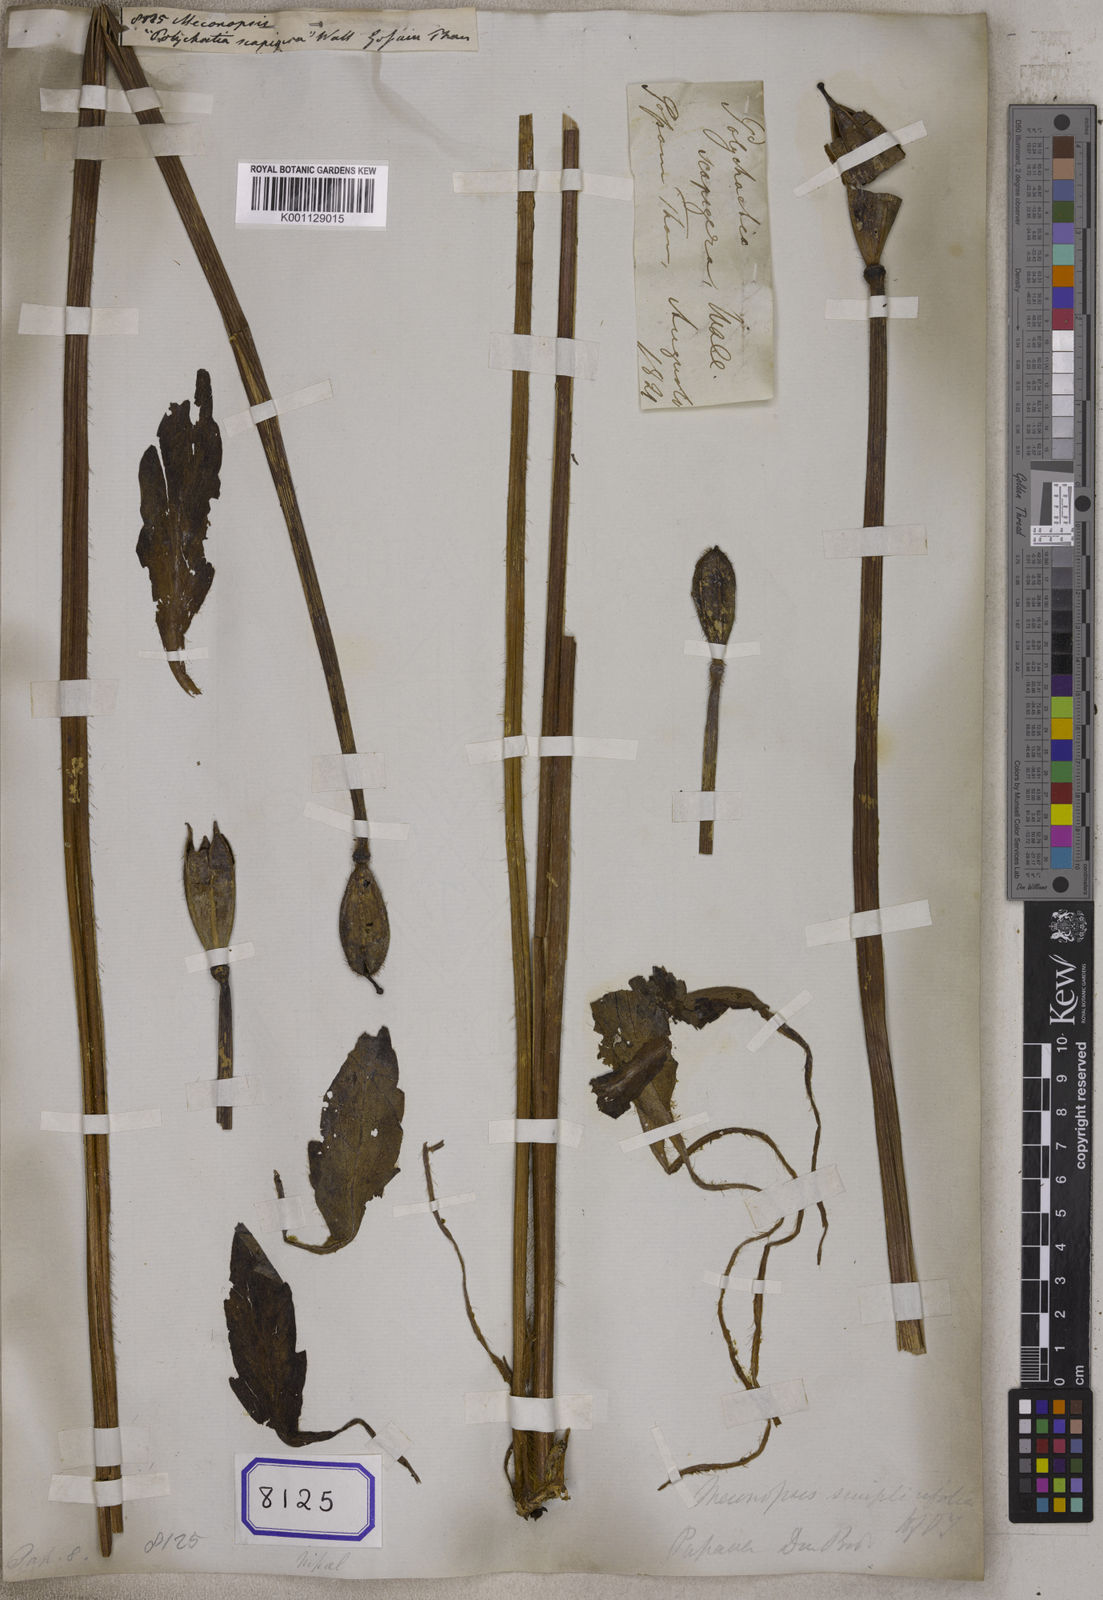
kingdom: Plantae
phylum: Tracheophyta
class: Magnoliopsida
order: Ranunculales
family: Papaveraceae
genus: Meconopsis
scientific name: Meconopsis
